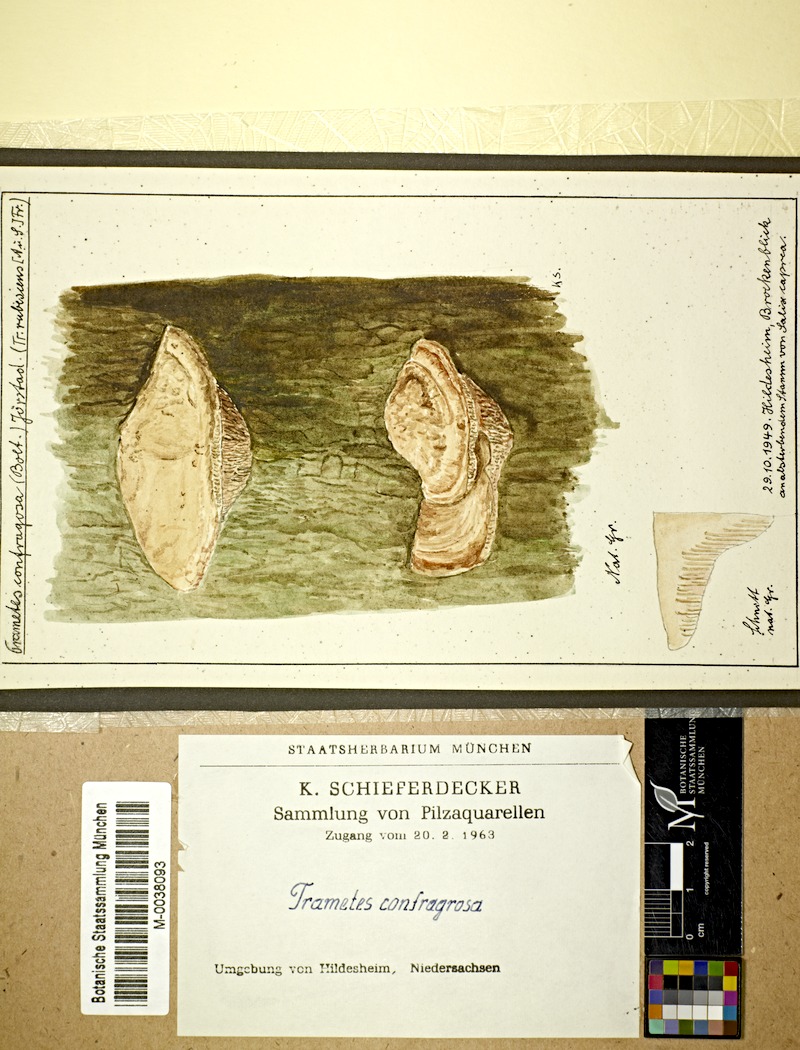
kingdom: Plantae
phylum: Tracheophyta
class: Magnoliopsida
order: Malpighiales
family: Salicaceae
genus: Salix
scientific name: Salix caprea
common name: Goat willow
